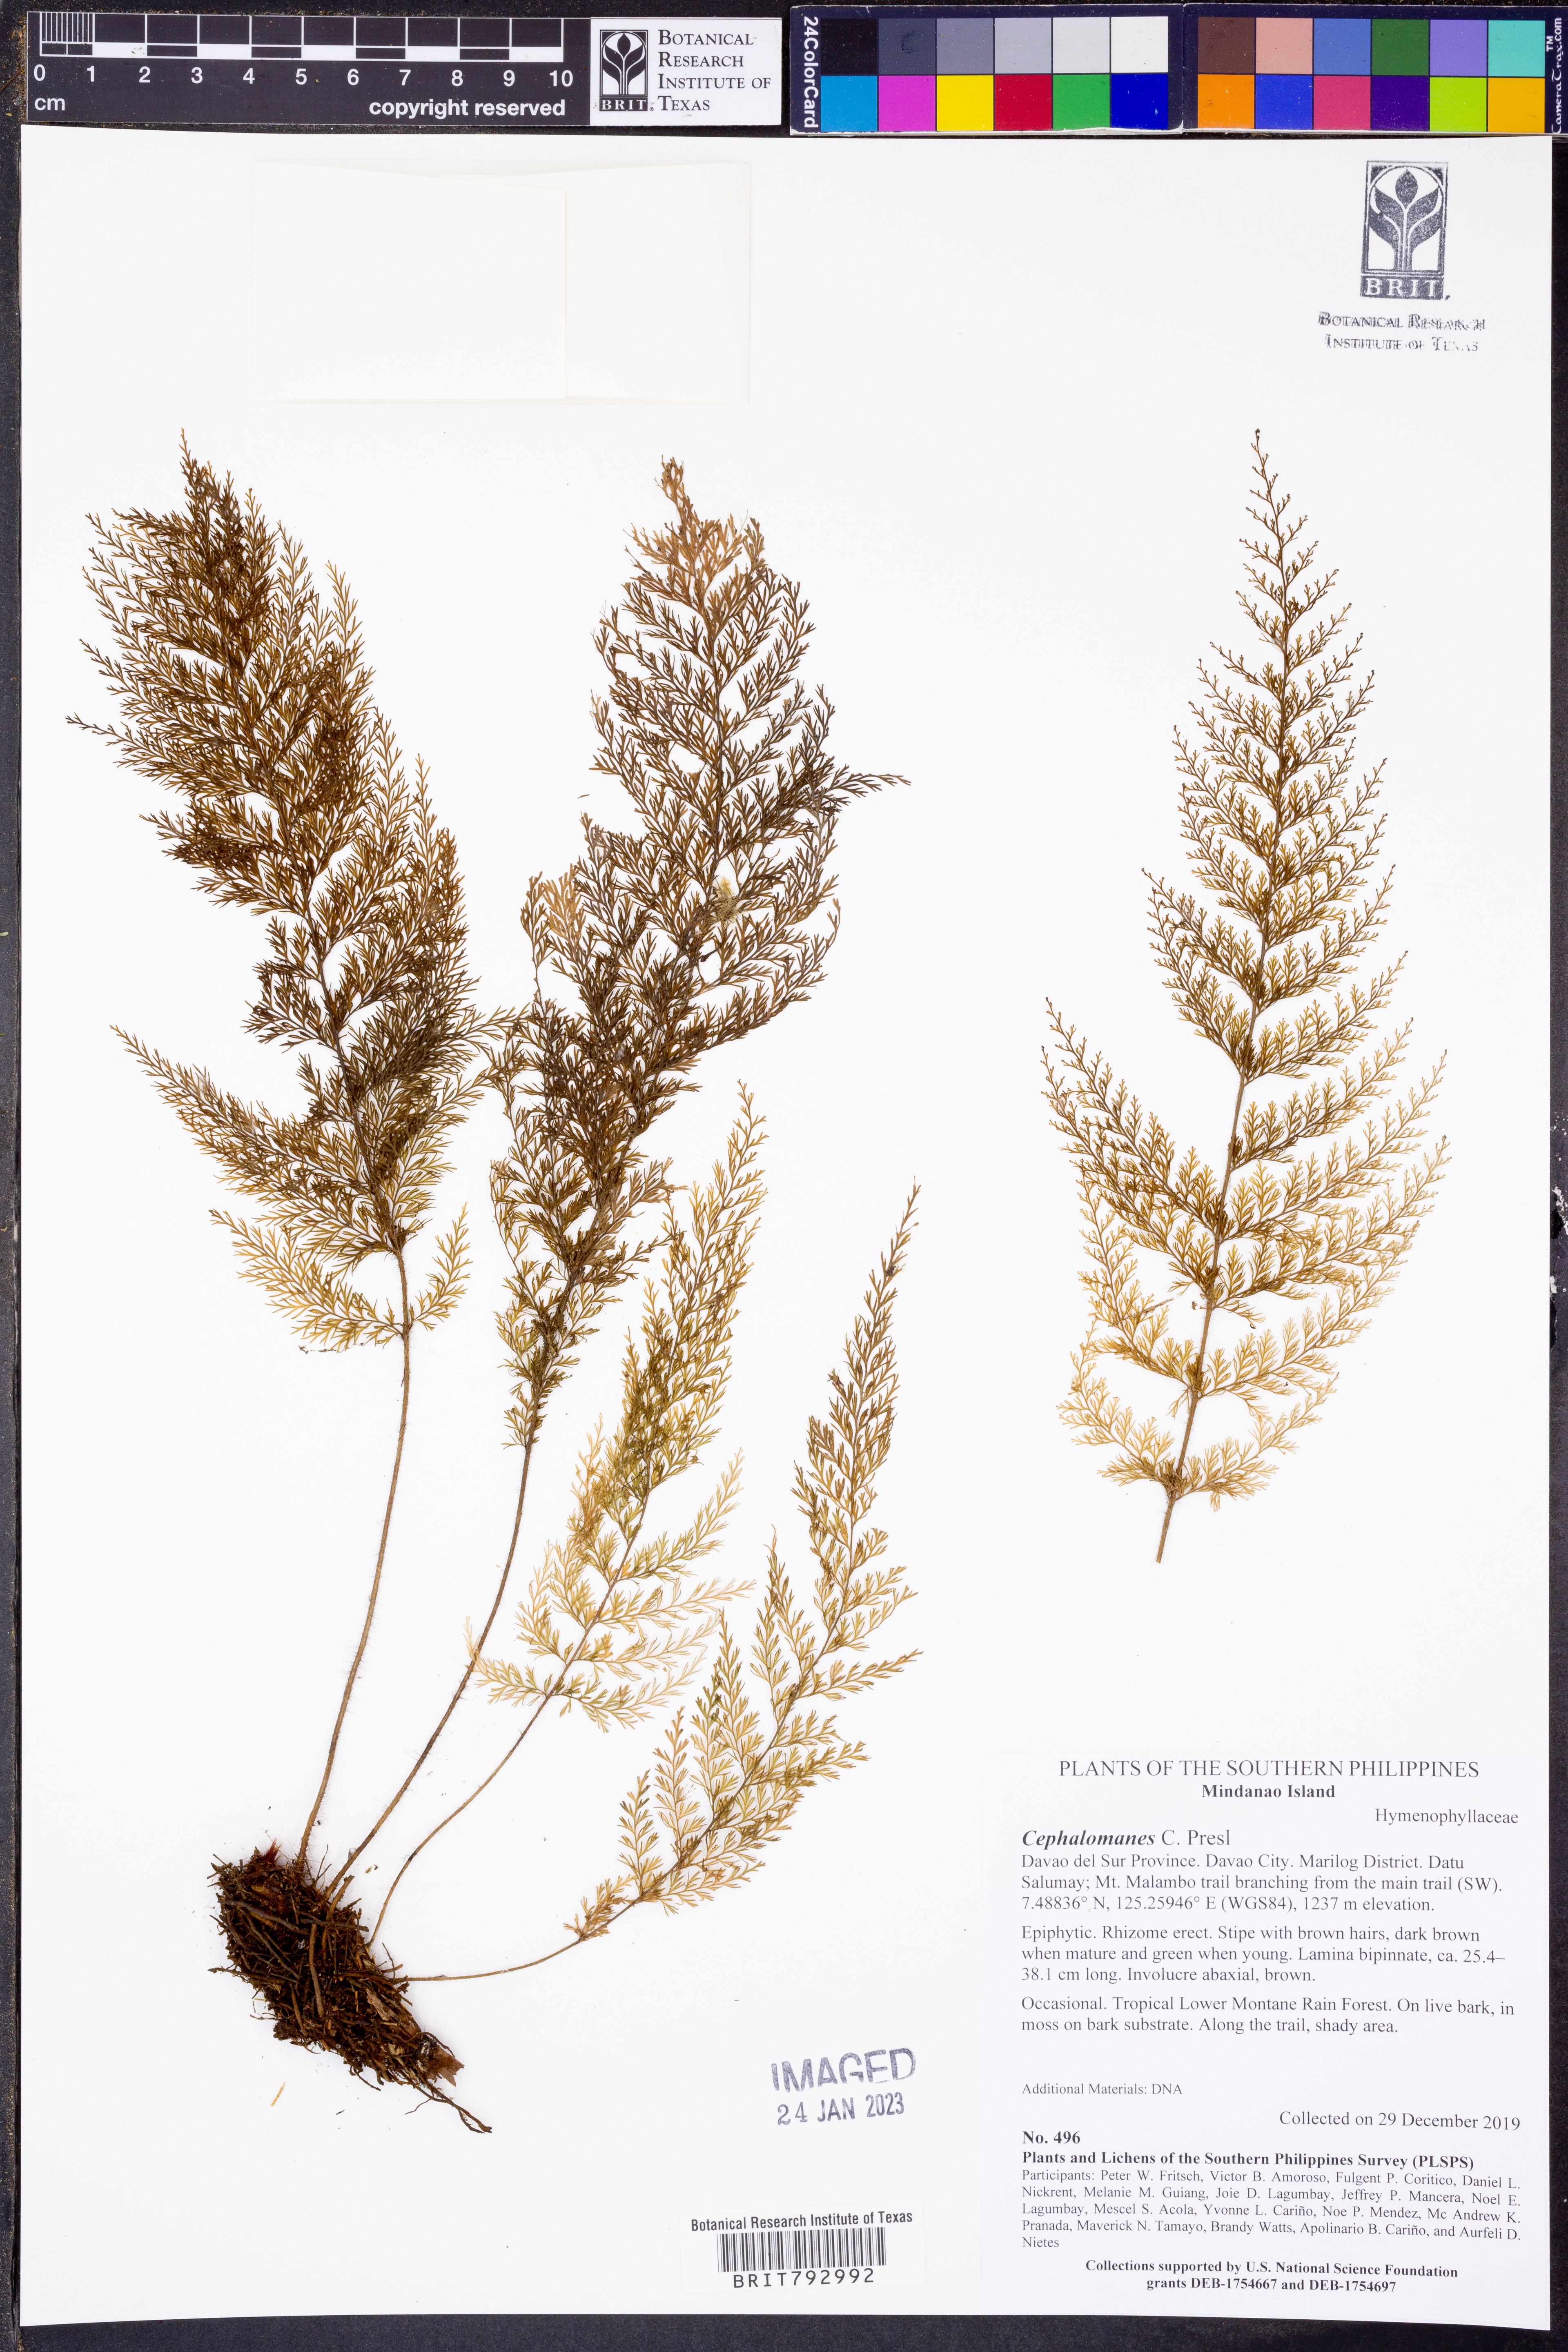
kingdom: Plantae
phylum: Tracheophyta
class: Polypodiopsida
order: Hymenophyllales
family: Hymenophyllaceae
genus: Cephalomanes
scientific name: Cephalomanes
